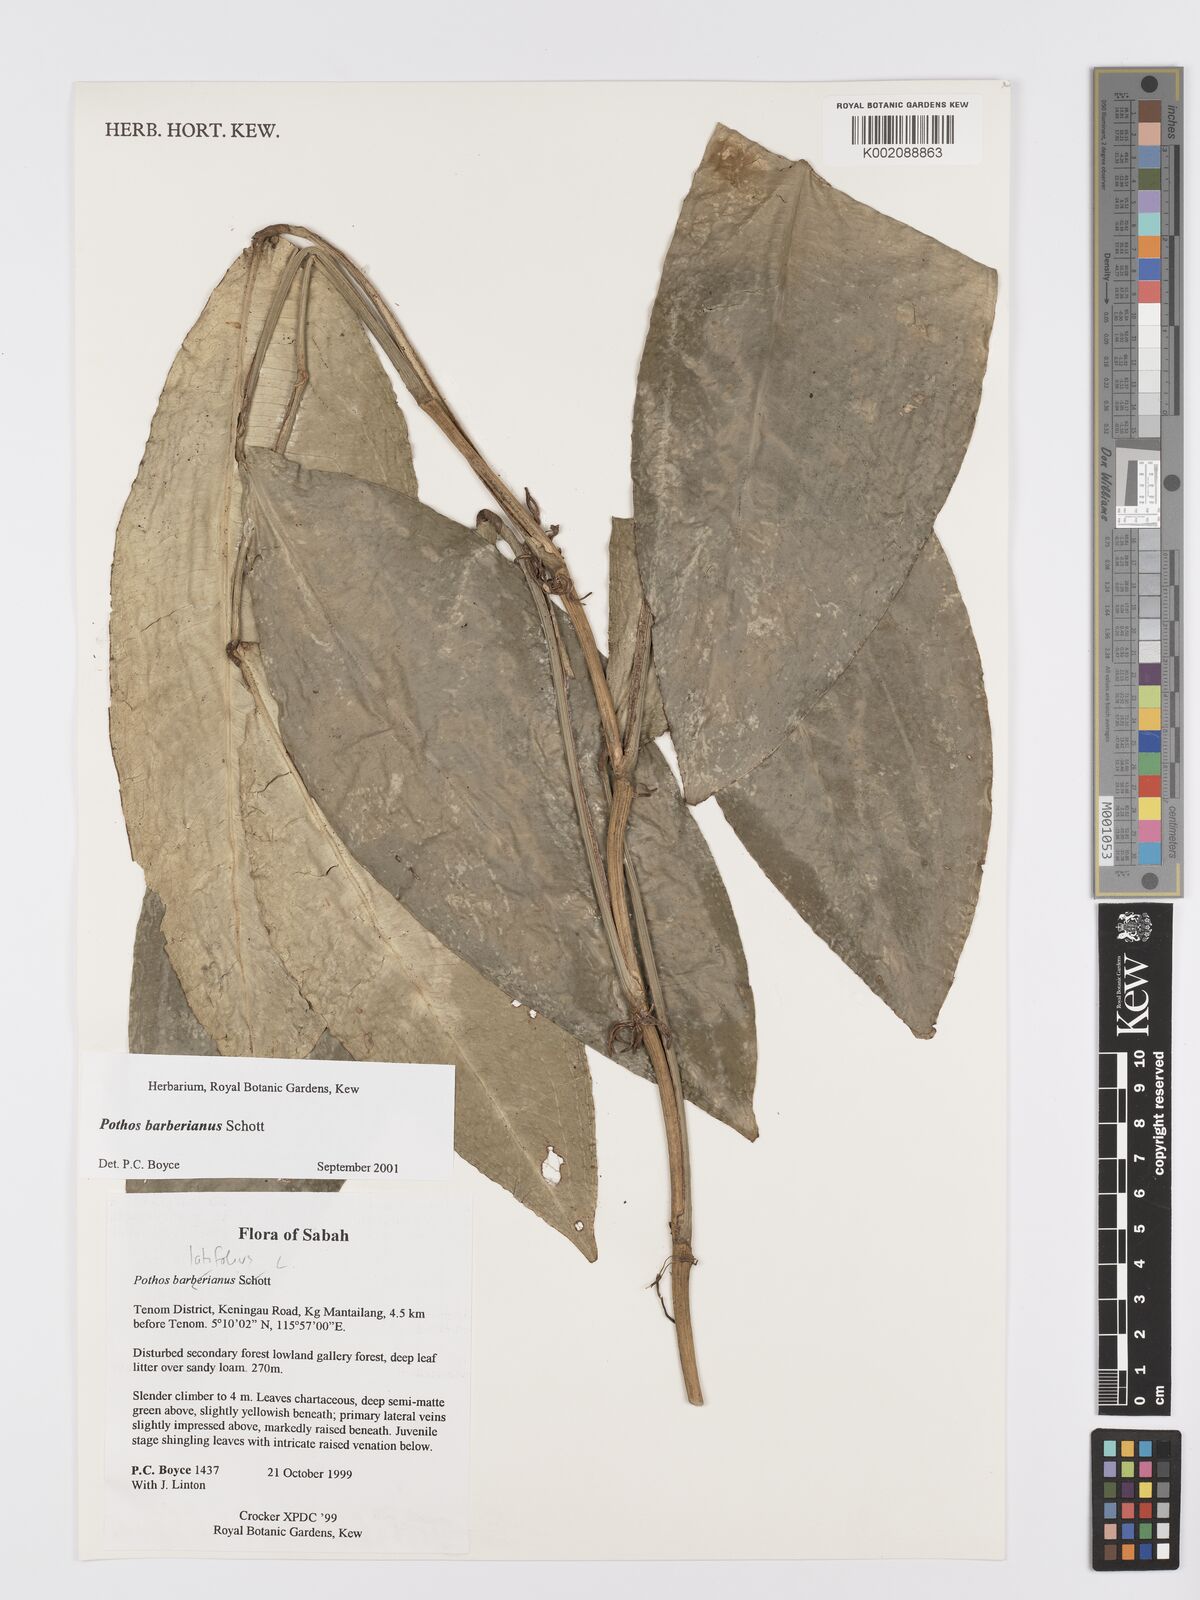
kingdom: Plantae
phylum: Tracheophyta
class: Liliopsida
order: Alismatales
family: Araceae
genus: Pothos
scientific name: Pothos barberianus
